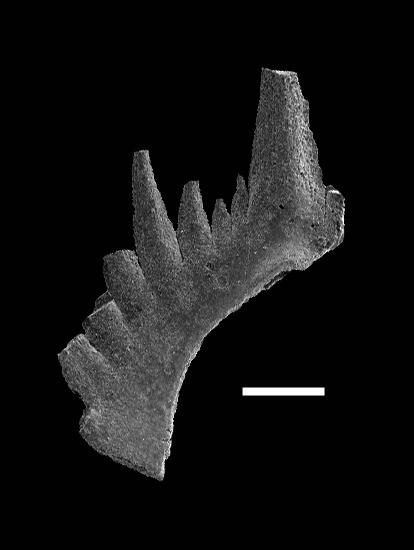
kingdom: Animalia
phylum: Chordata
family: Prioniodontidae
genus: Ozarkodina
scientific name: Ozarkodina
